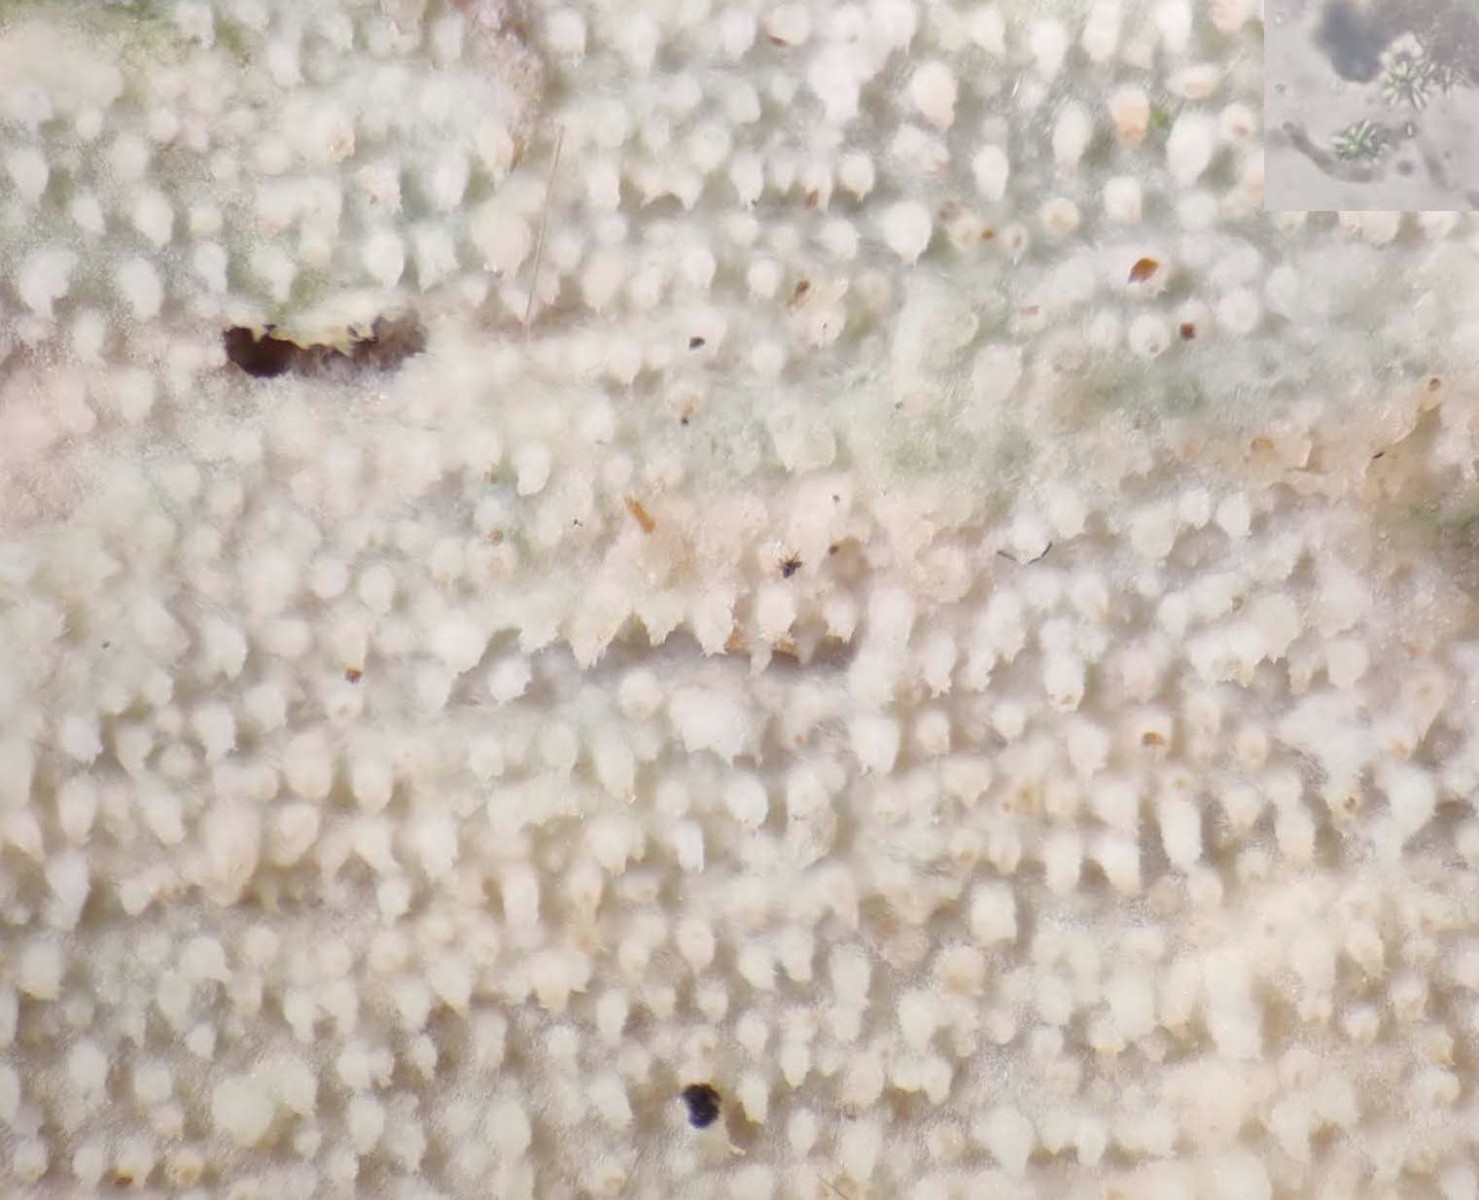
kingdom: Fungi
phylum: Basidiomycota
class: Agaricomycetes
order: Hymenochaetales
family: Rickenellaceae
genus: Resinicium
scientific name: Resinicium bicolor
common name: almindelig vokstand
